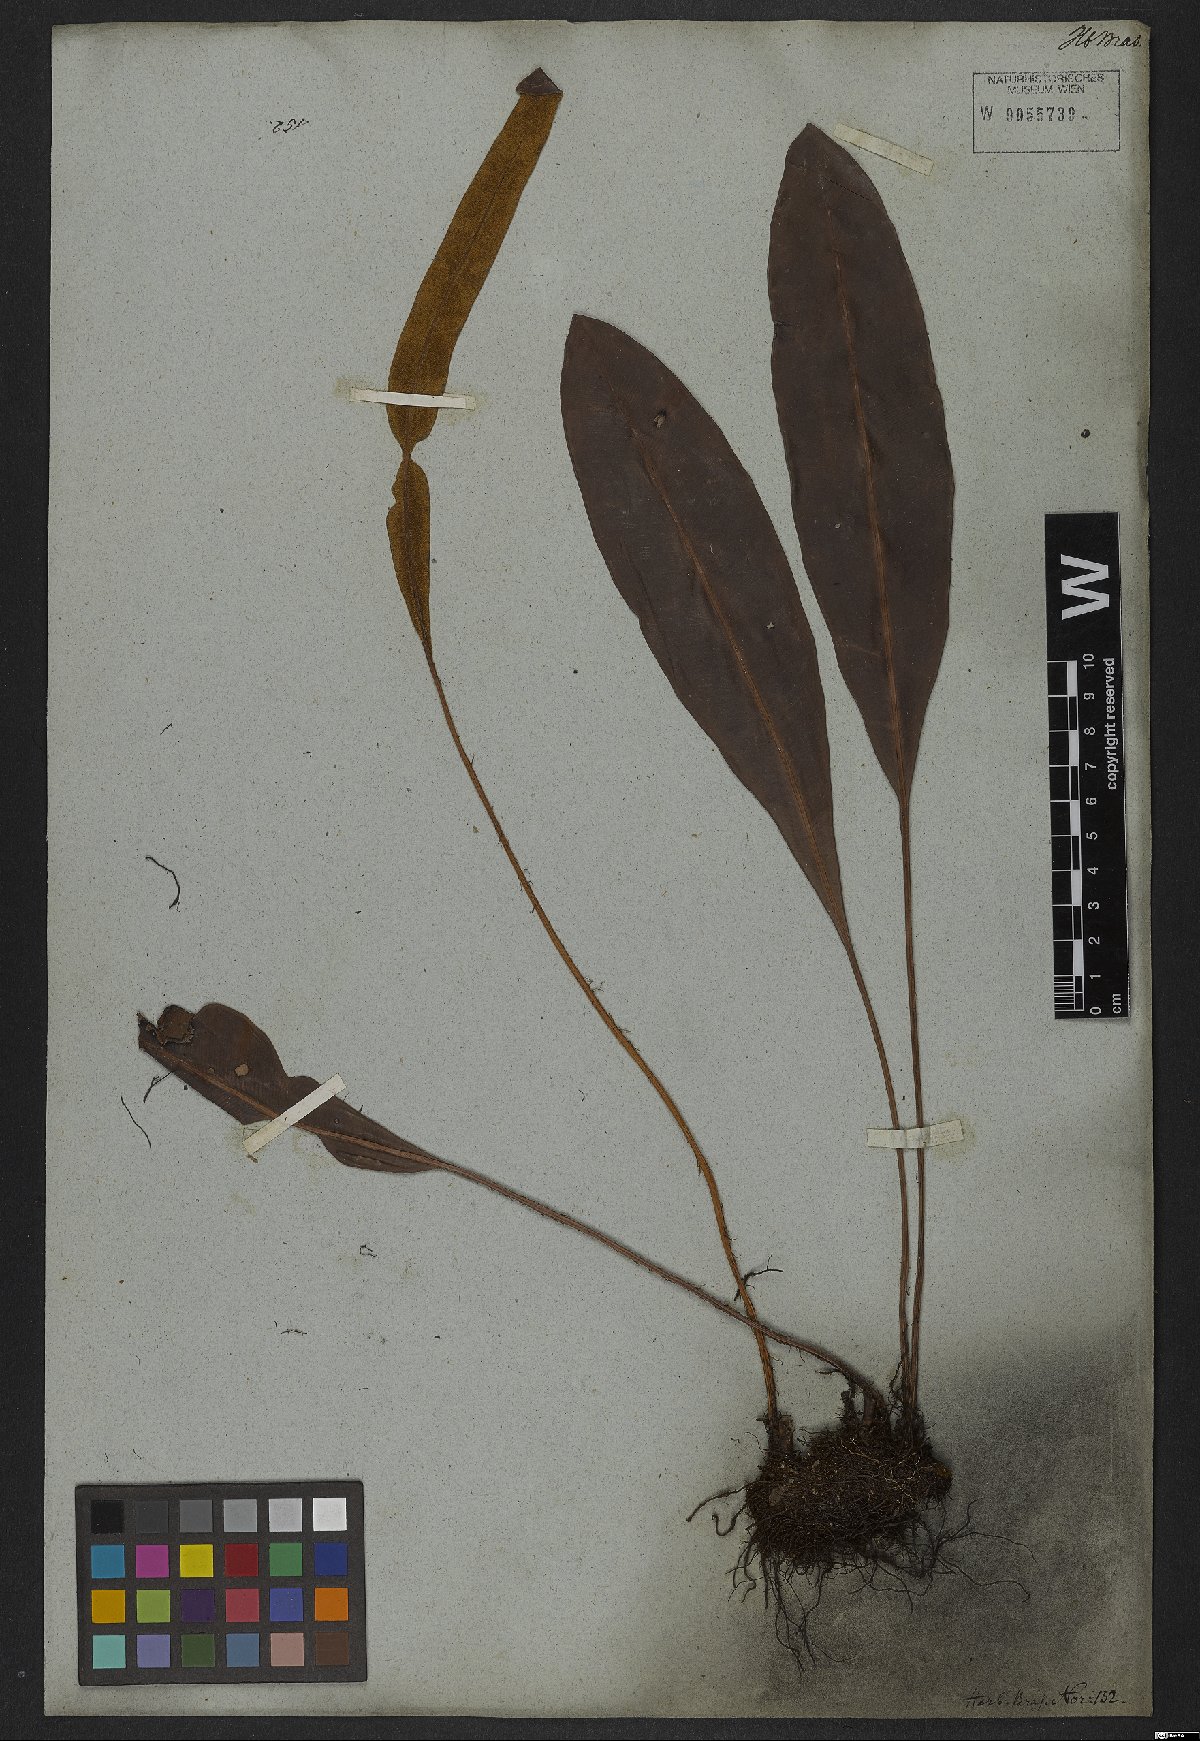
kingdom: Plantae
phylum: Tracheophyta
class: Polypodiopsida
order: Polypodiales
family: Dryopteridaceae
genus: Elaphoglossum
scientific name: Elaphoglossum latifolium
